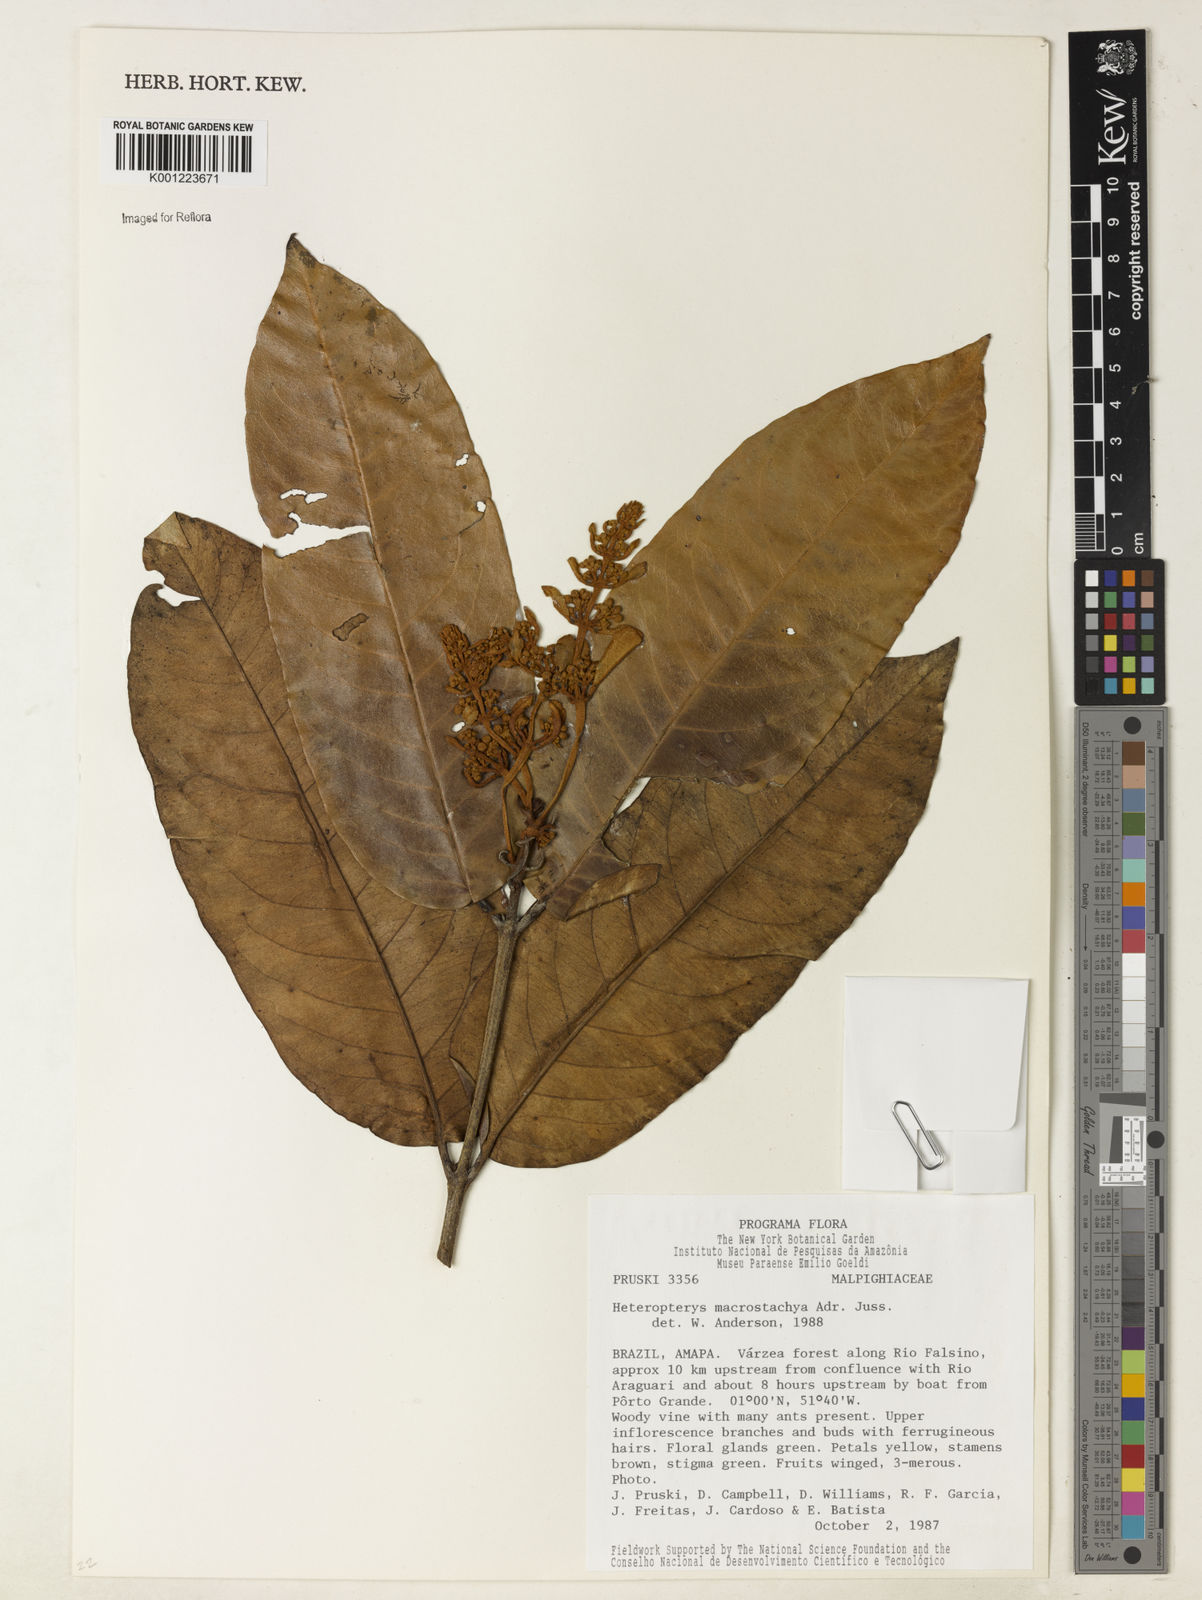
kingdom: Plantae
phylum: Tracheophyta
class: Magnoliopsida
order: Malpighiales
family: Malpighiaceae
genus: Heteropterys
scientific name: Heteropterys macrostachya
